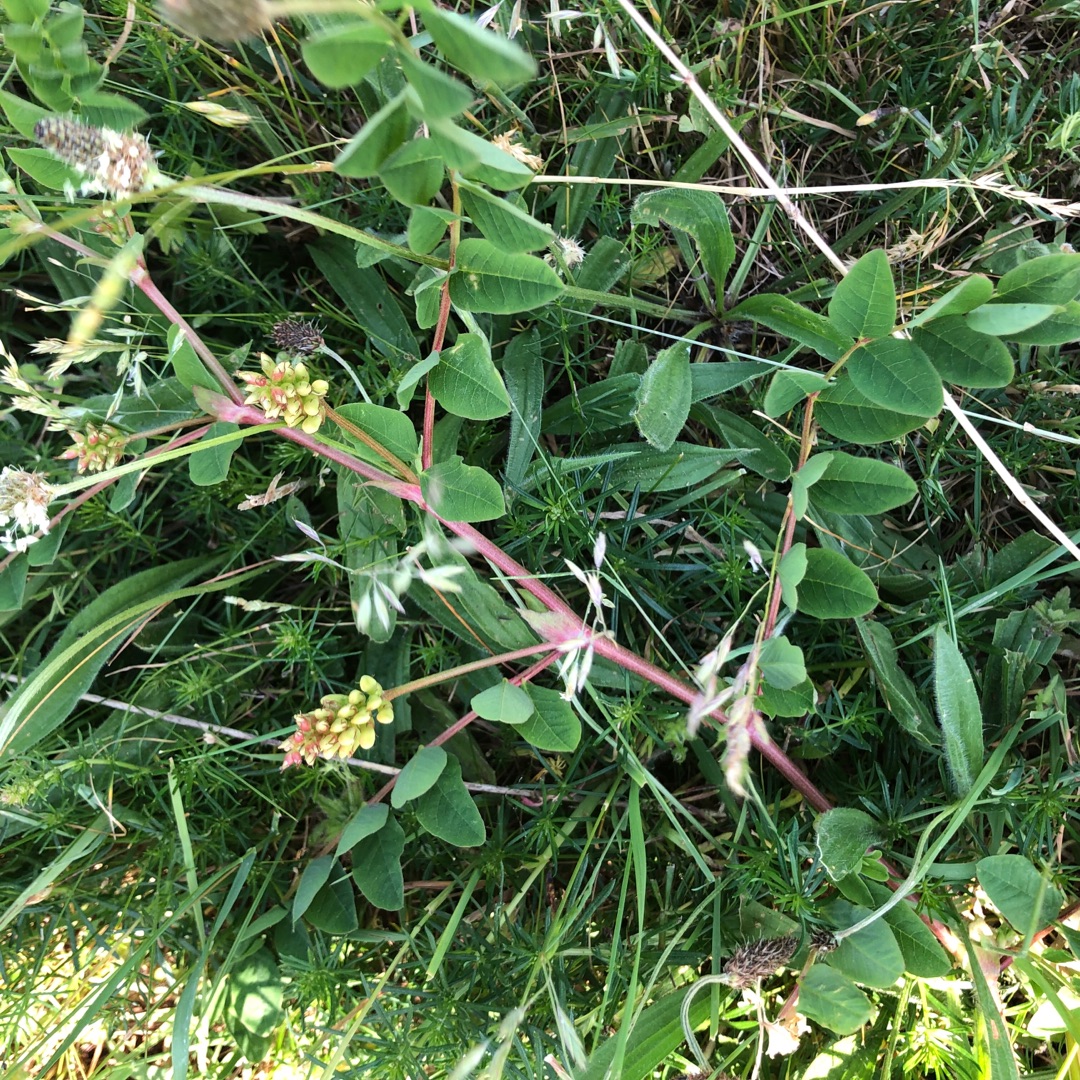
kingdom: Plantae
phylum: Tracheophyta
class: Magnoliopsida
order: Fabales
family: Fabaceae
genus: Astragalus
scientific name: Astragalus glycyphyllos
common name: Sød astragel
